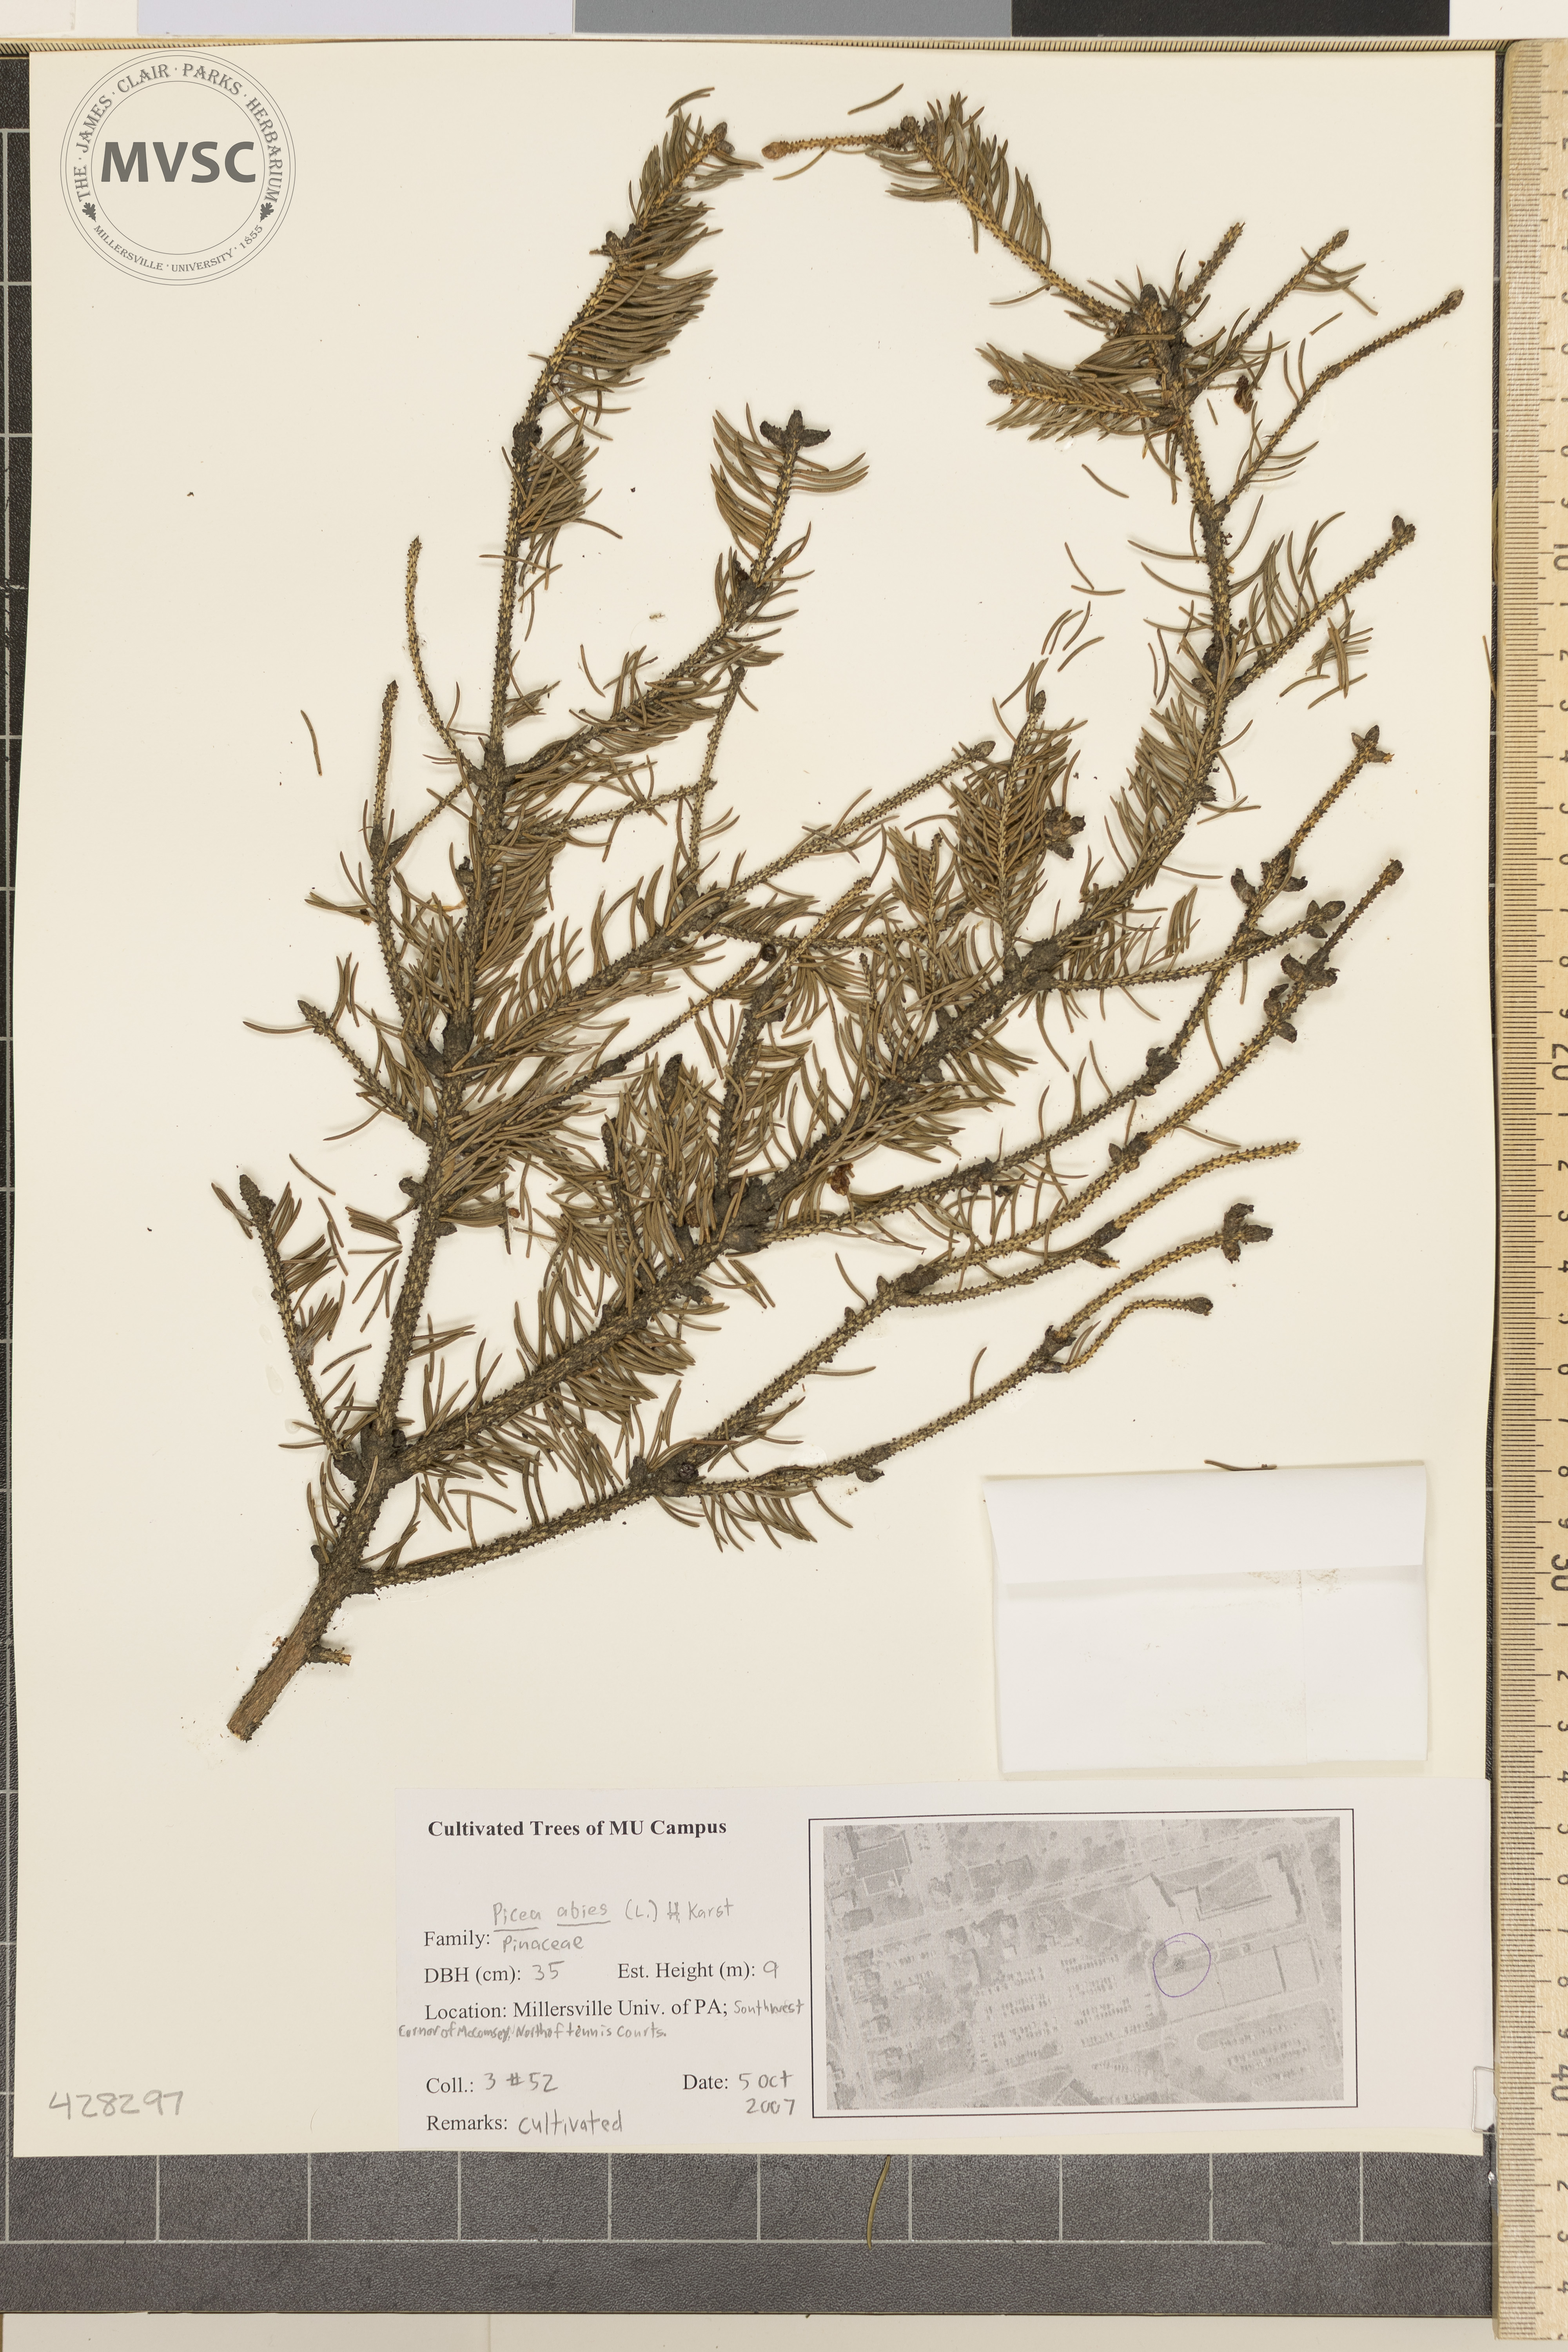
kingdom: Plantae
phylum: Tracheophyta
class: Pinopsida
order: Pinales
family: Pinaceae
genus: Picea
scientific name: Picea abies
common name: Norway spruce
